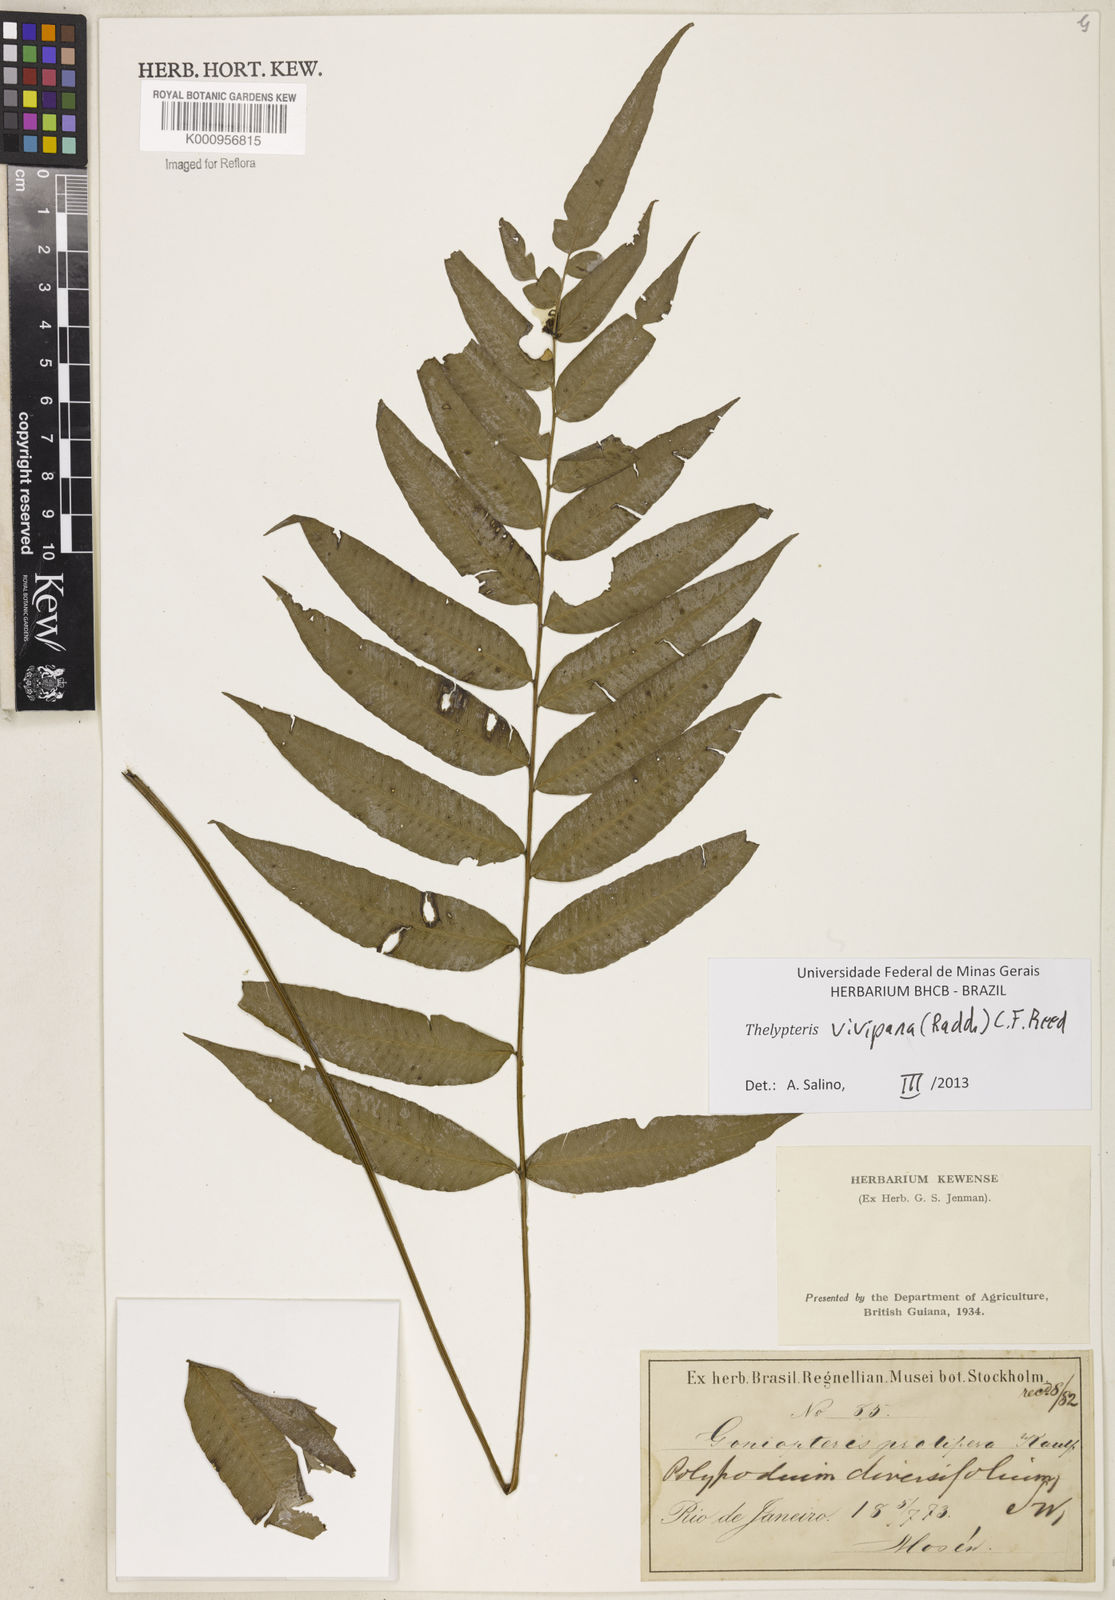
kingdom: Plantae
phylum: Tracheophyta
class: Polypodiopsida
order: Polypodiales
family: Thelypteridaceae
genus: Goniopteris
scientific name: Goniopteris vivipara
